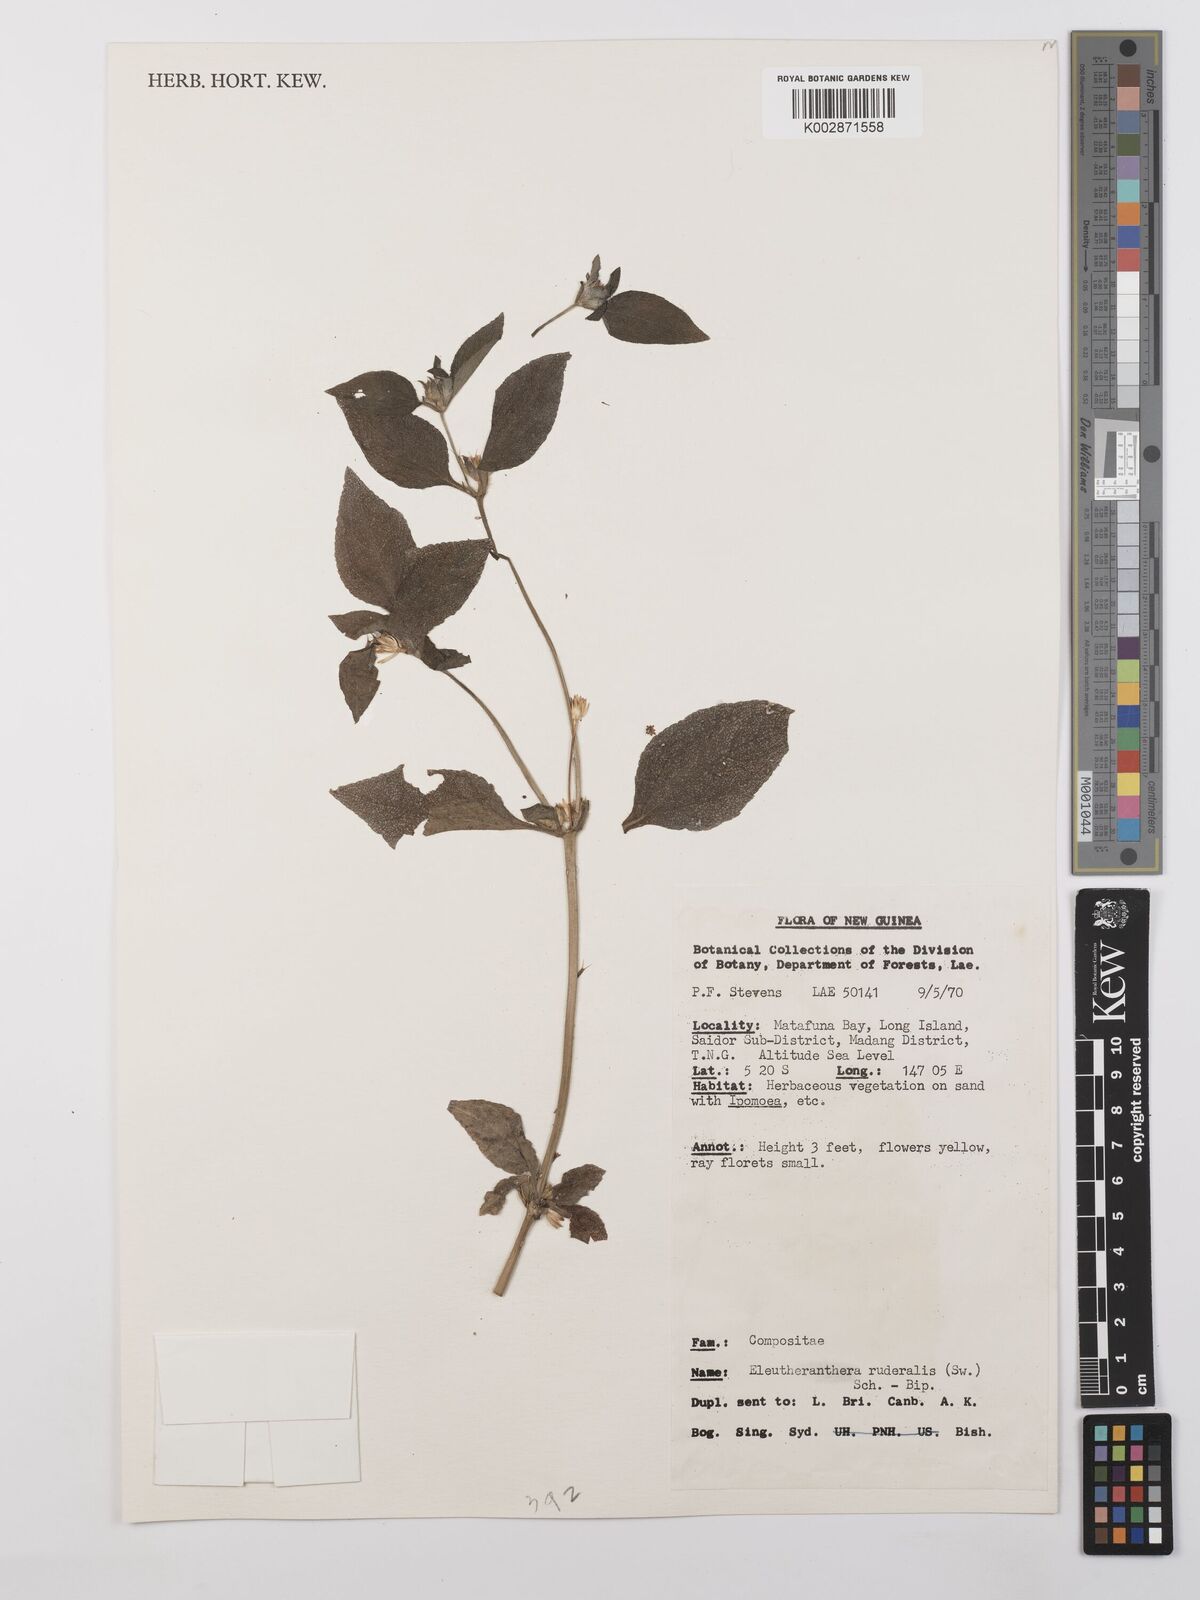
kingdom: Plantae
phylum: Tracheophyta
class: Magnoliopsida
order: Asterales
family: Asteraceae
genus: Eleutheranthera
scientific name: Eleutheranthera ruderalis
